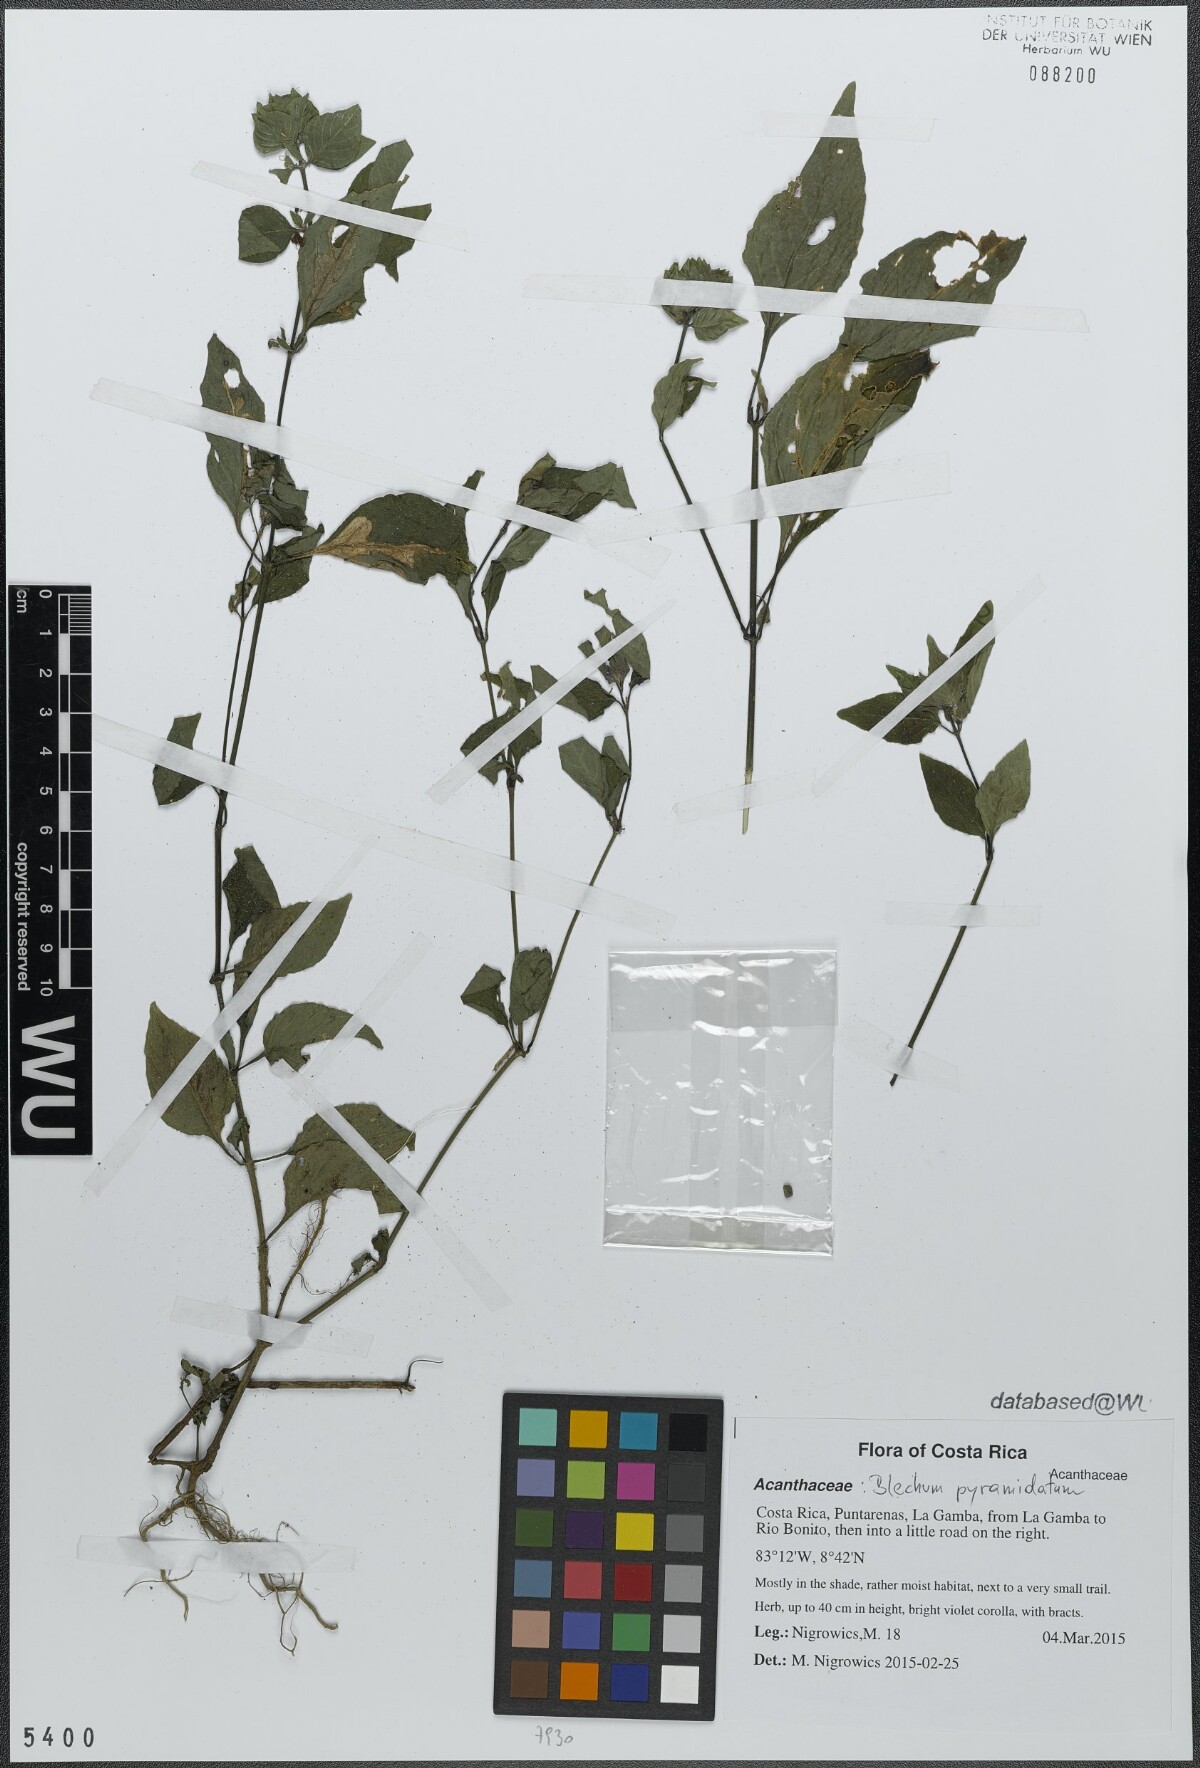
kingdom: Plantae
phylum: Tracheophyta
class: Magnoliopsida
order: Lamiales
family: Acanthaceae
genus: Ruellia
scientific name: Ruellia blechum
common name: Browne's blechum
